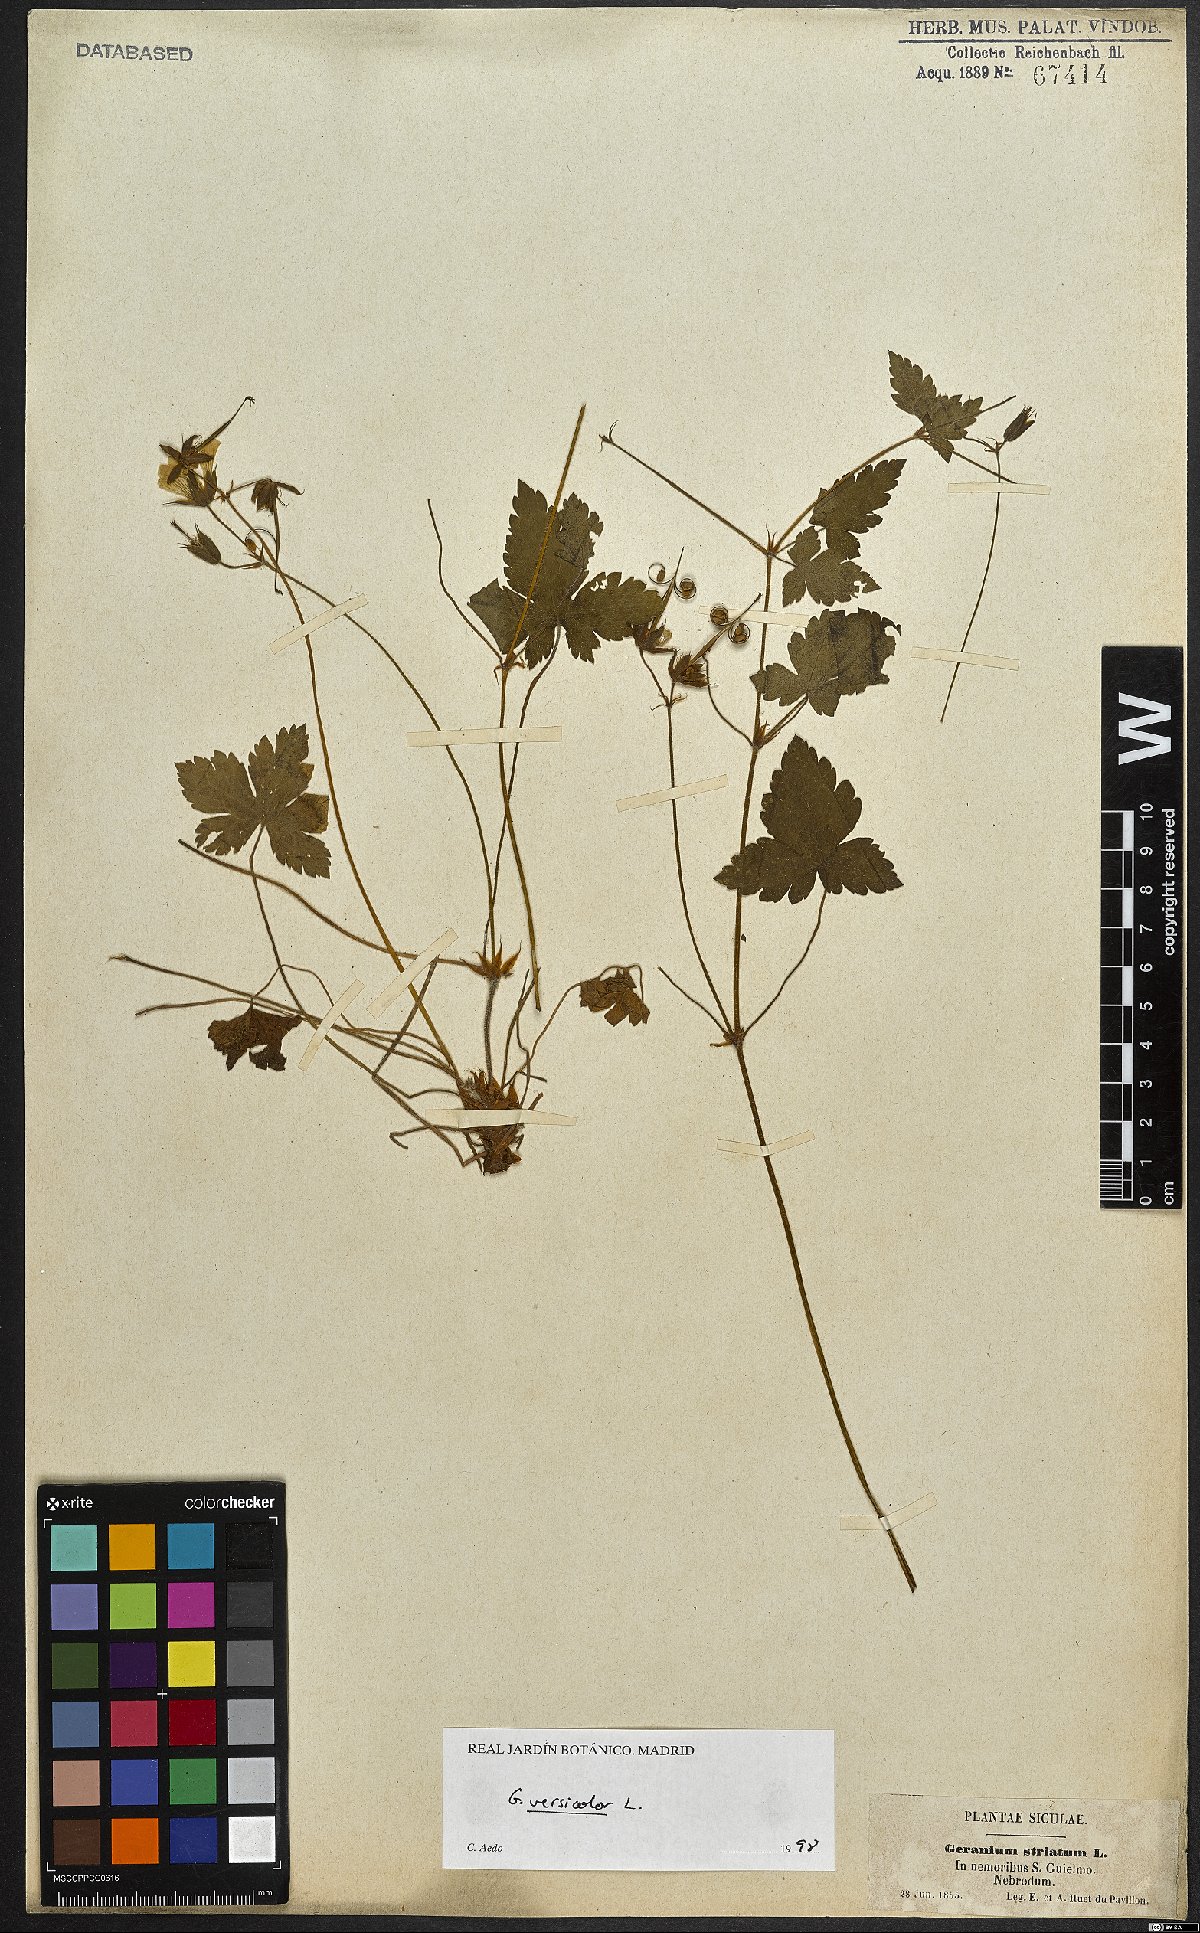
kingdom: Plantae
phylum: Tracheophyta
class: Magnoliopsida
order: Geraniales
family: Geraniaceae
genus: Geranium
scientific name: Geranium versicolor
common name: Pencilled crane's-bill
